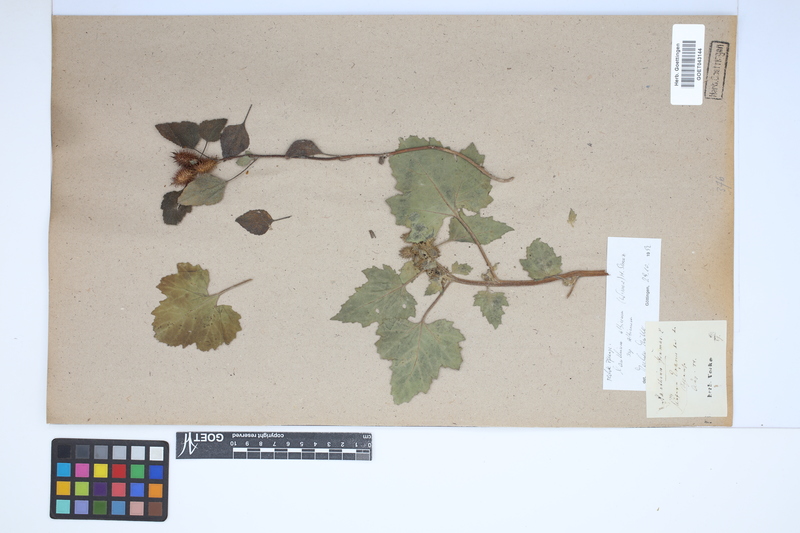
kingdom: Plantae
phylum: Tracheophyta
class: Magnoliopsida
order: Asterales
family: Asteraceae
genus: Xanthium
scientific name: Xanthium strumarium
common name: Rough cocklebur
